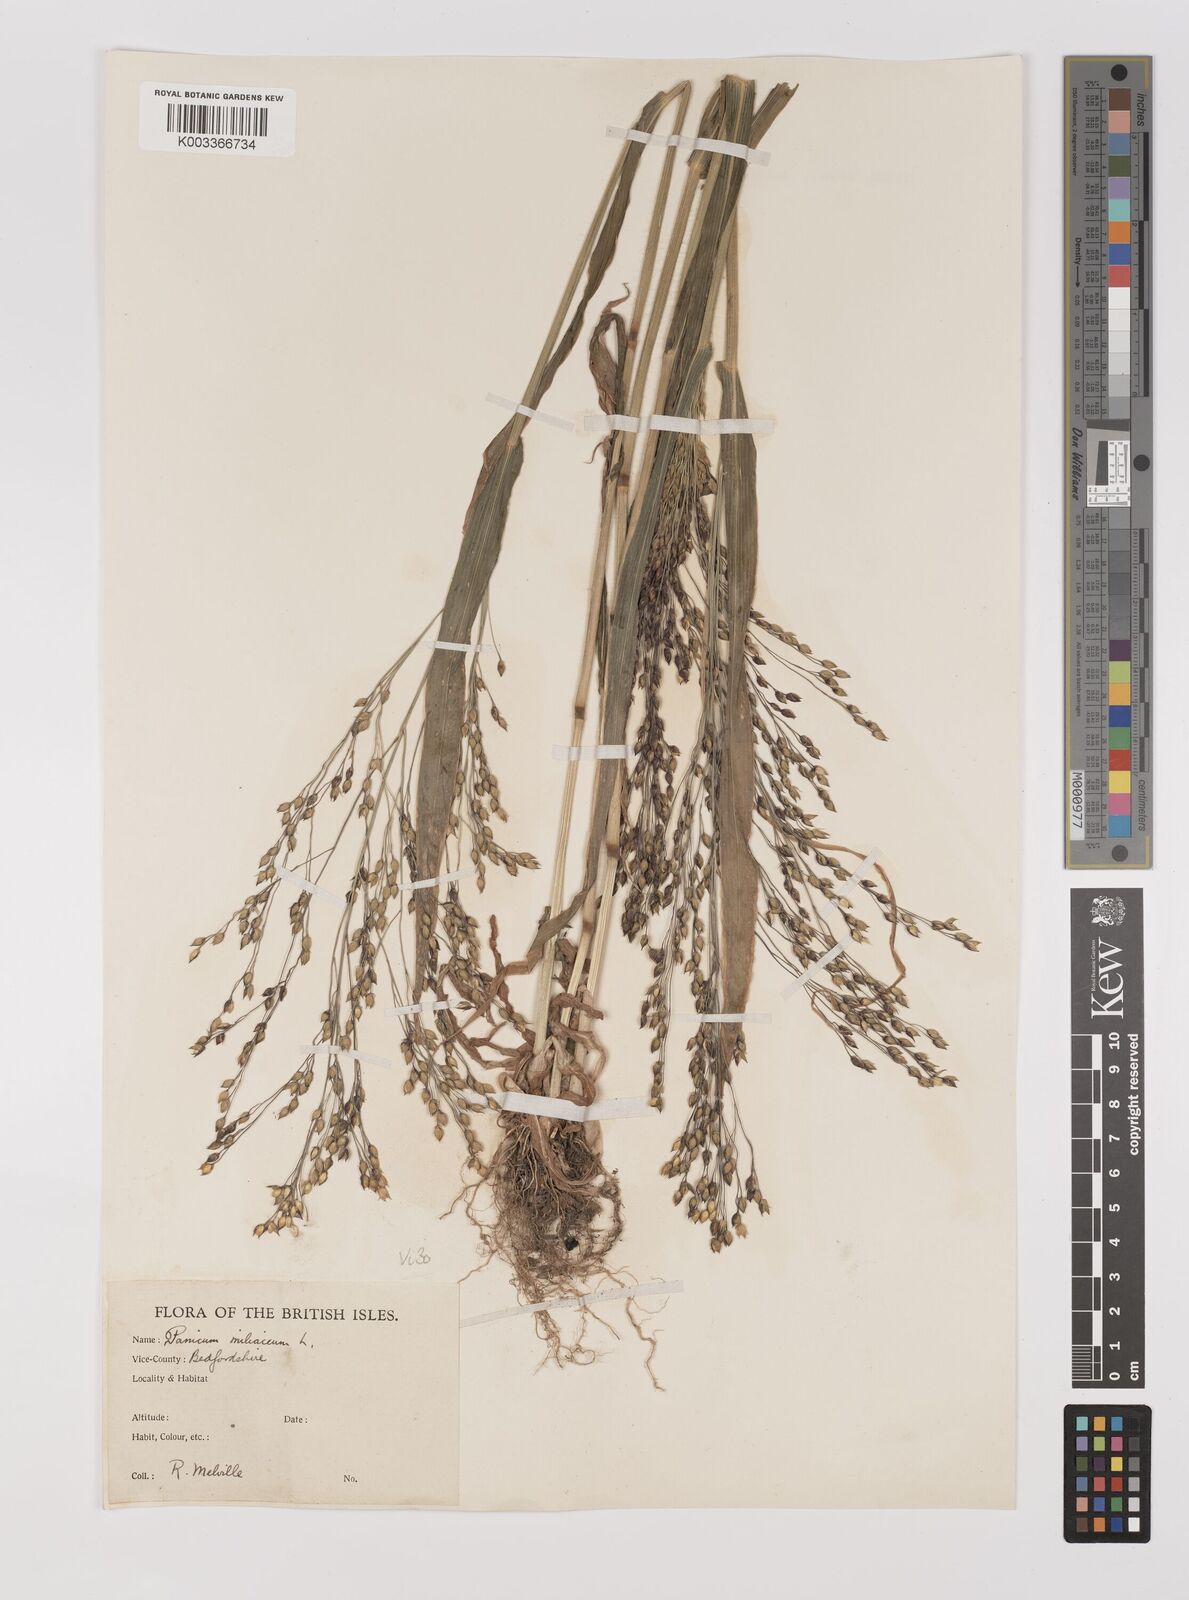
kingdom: Plantae
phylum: Tracheophyta
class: Liliopsida
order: Poales
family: Poaceae
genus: Panicum
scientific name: Panicum miliaceum
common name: Common millet
